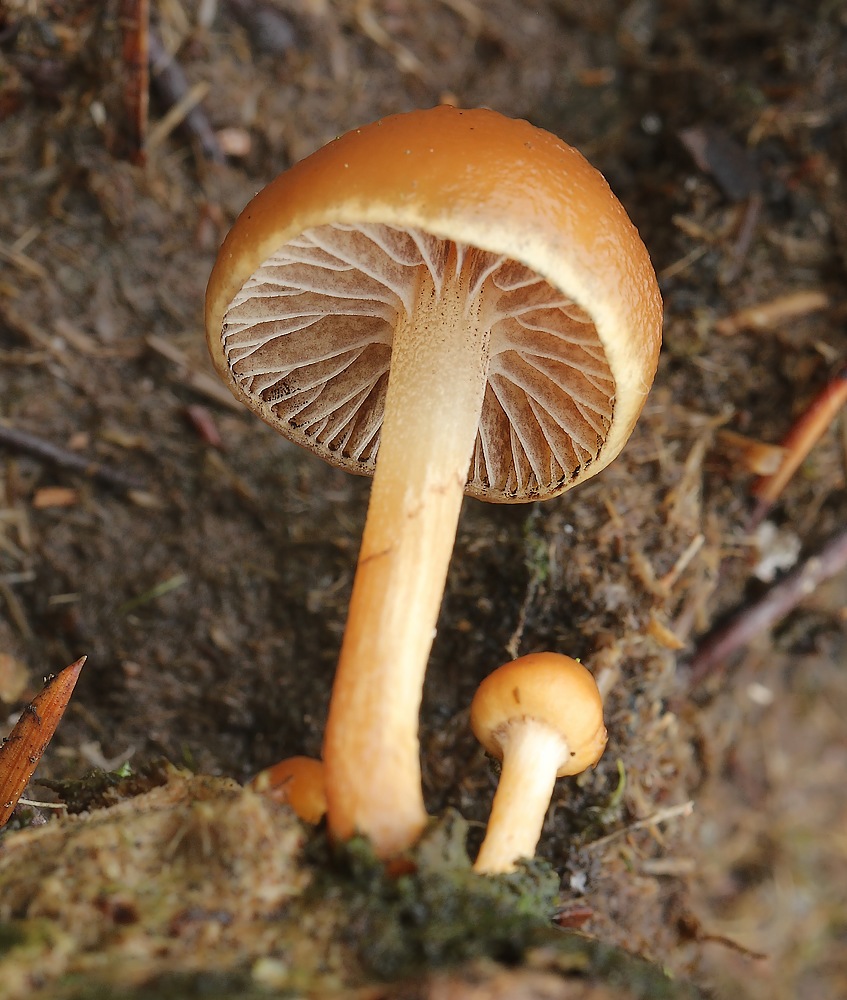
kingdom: Fungi
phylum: Basidiomycota
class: Agaricomycetes
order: Agaricales
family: Strophariaceae
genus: Deconica
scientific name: Deconica
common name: stråhat
